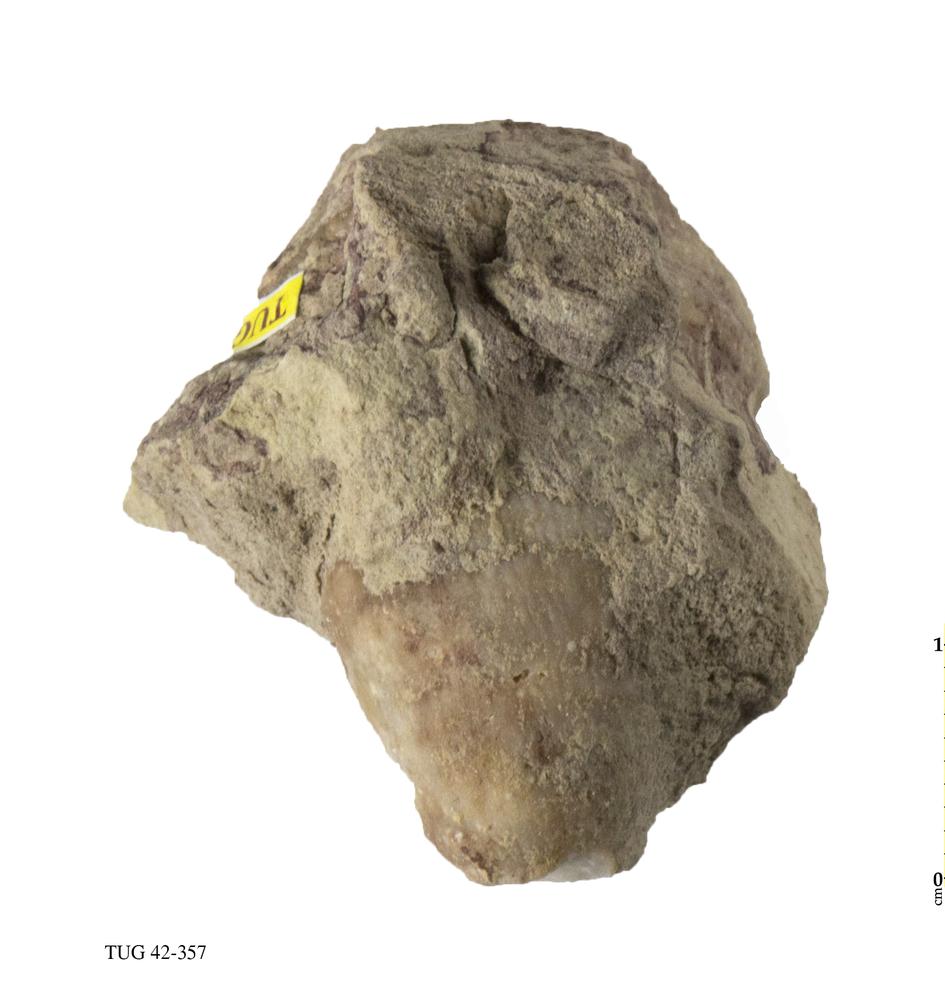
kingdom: Animalia
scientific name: Animalia
